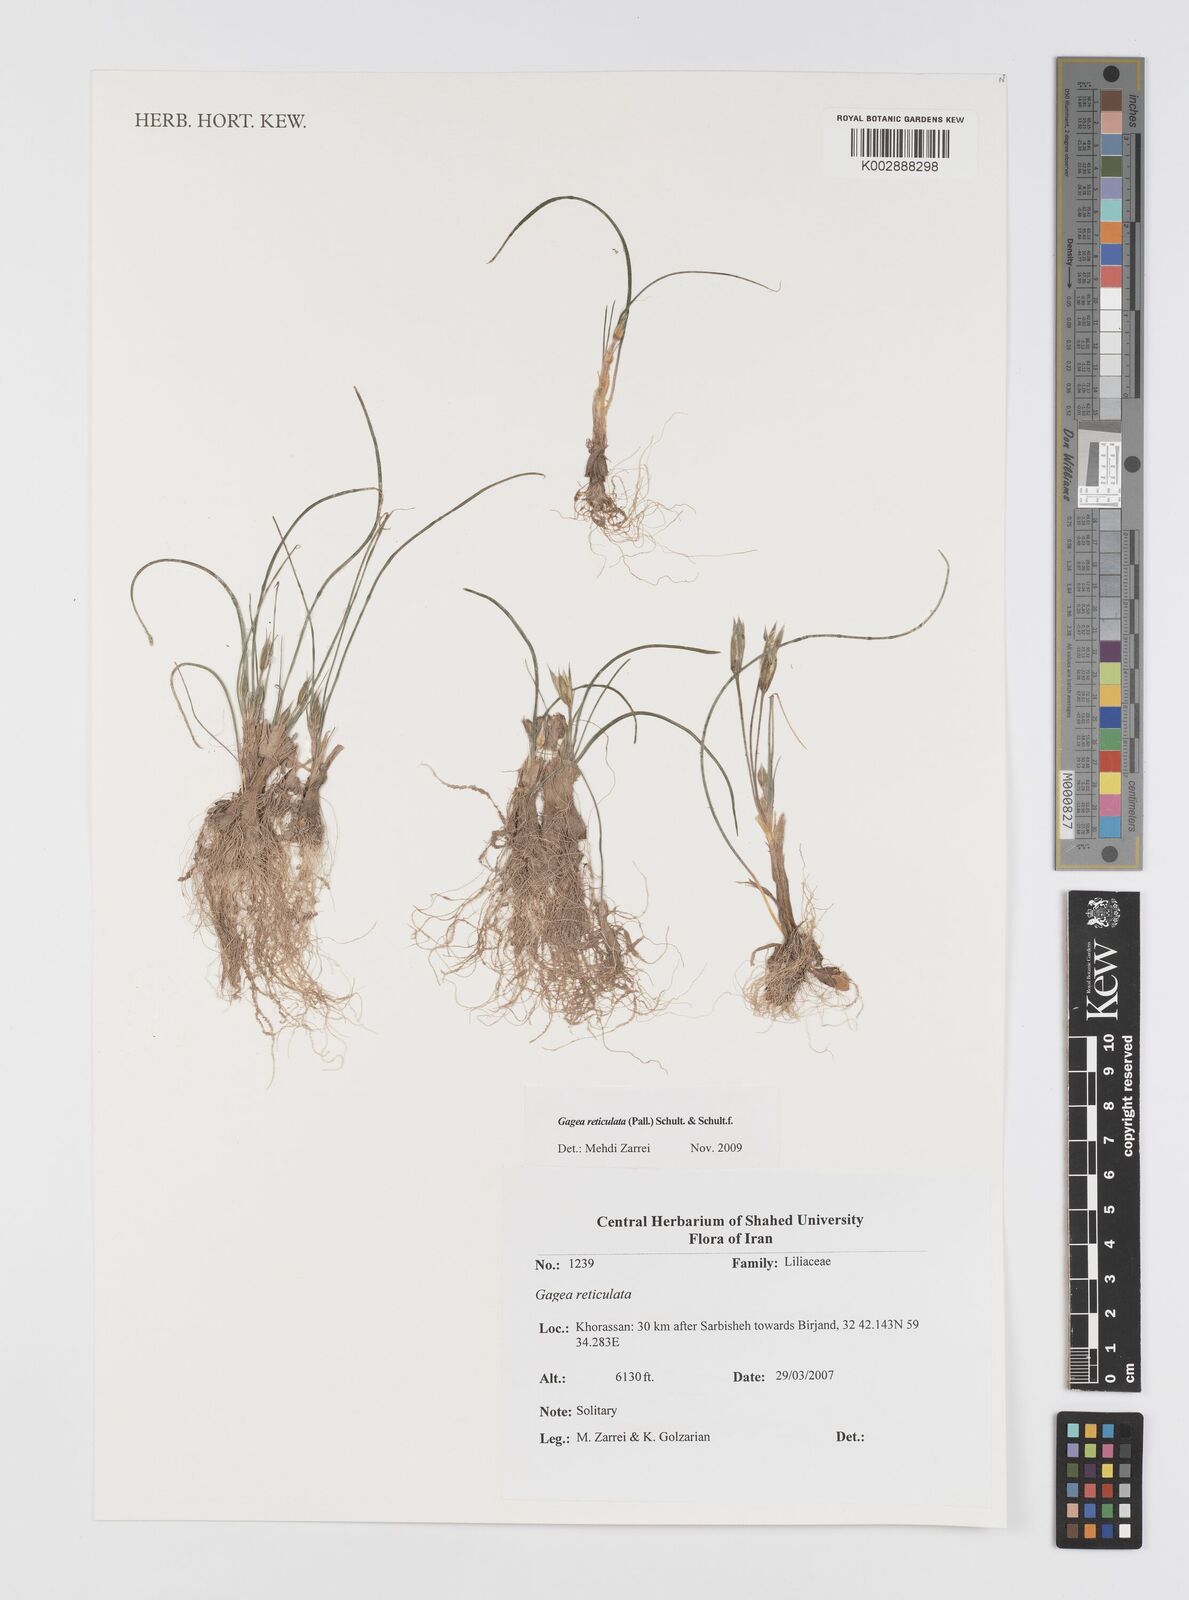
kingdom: Plantae
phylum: Tracheophyta
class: Liliopsida
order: Liliales
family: Liliaceae
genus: Gagea
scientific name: Gagea reticulata
